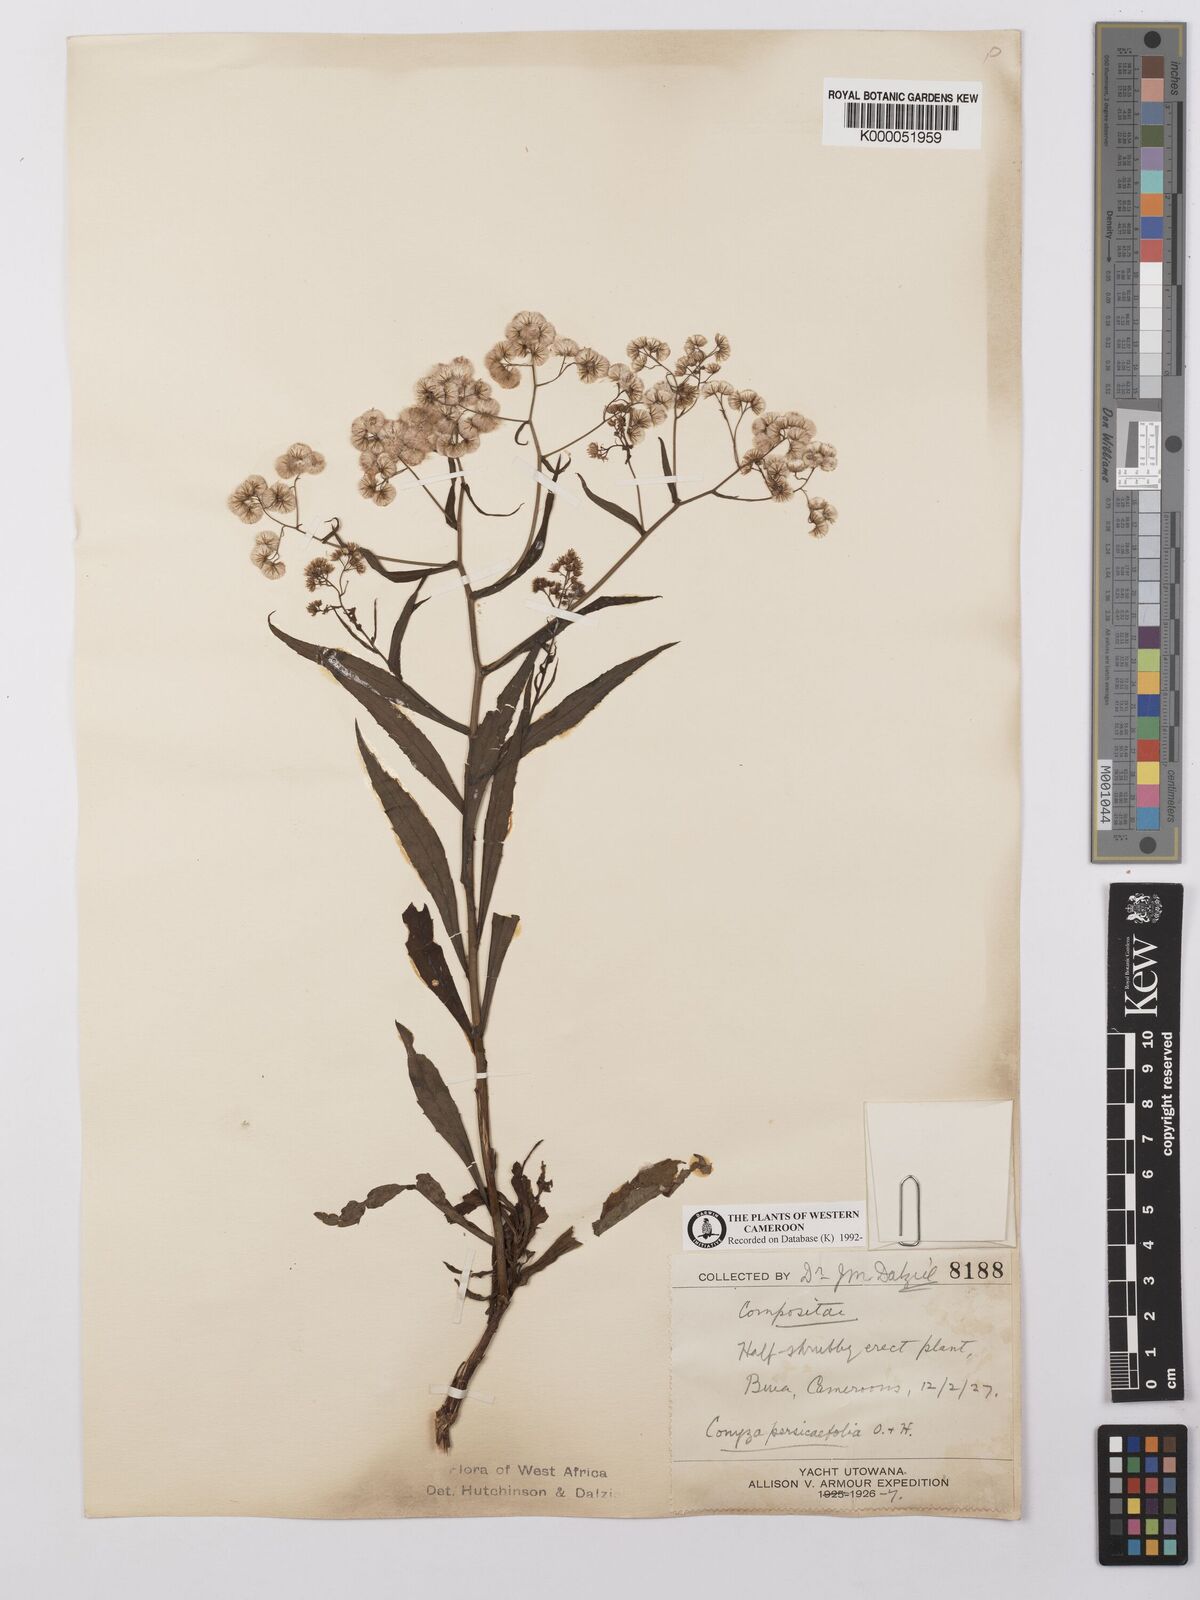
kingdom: Plantae
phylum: Tracheophyta
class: Magnoliopsida
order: Asterales
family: Asteraceae
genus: Nidorella
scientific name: Nidorella attenuata
